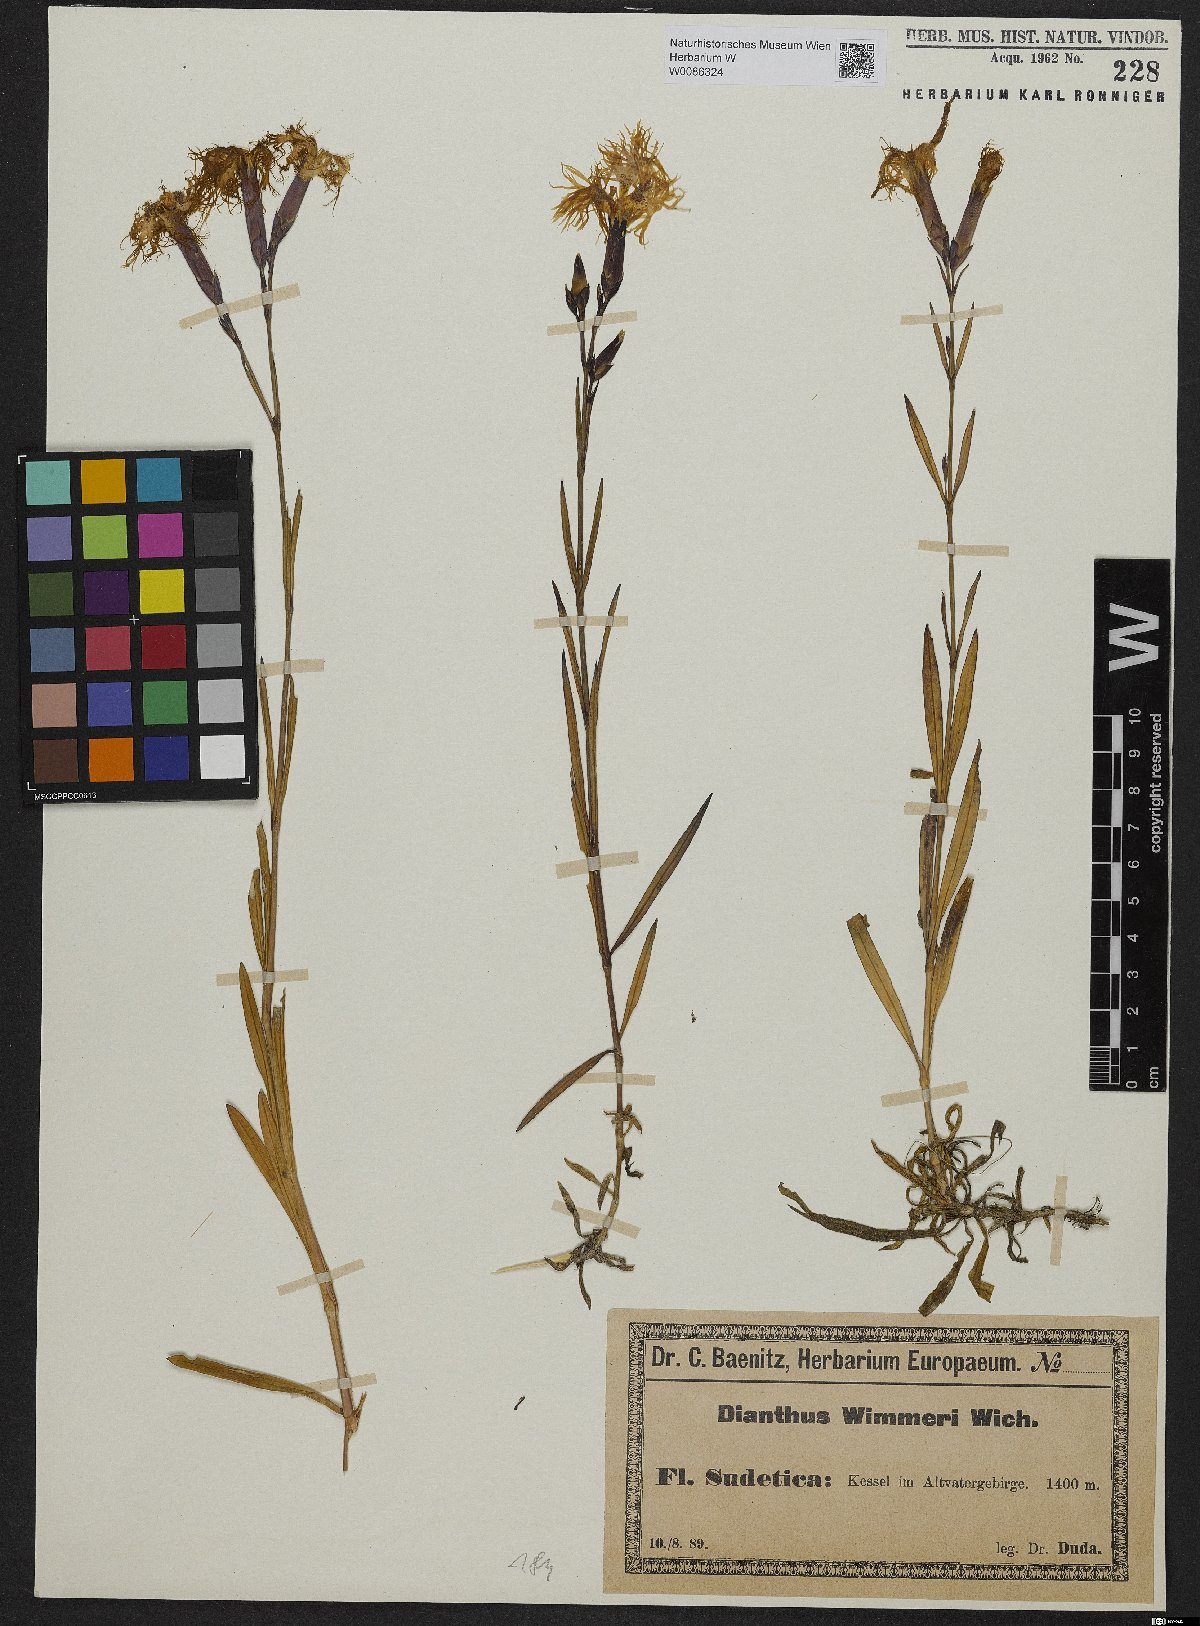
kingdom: Plantae
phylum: Tracheophyta
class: Magnoliopsida
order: Caryophyllales
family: Caryophyllaceae
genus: Dianthus
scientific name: Dianthus superbus
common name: Fringed pink
